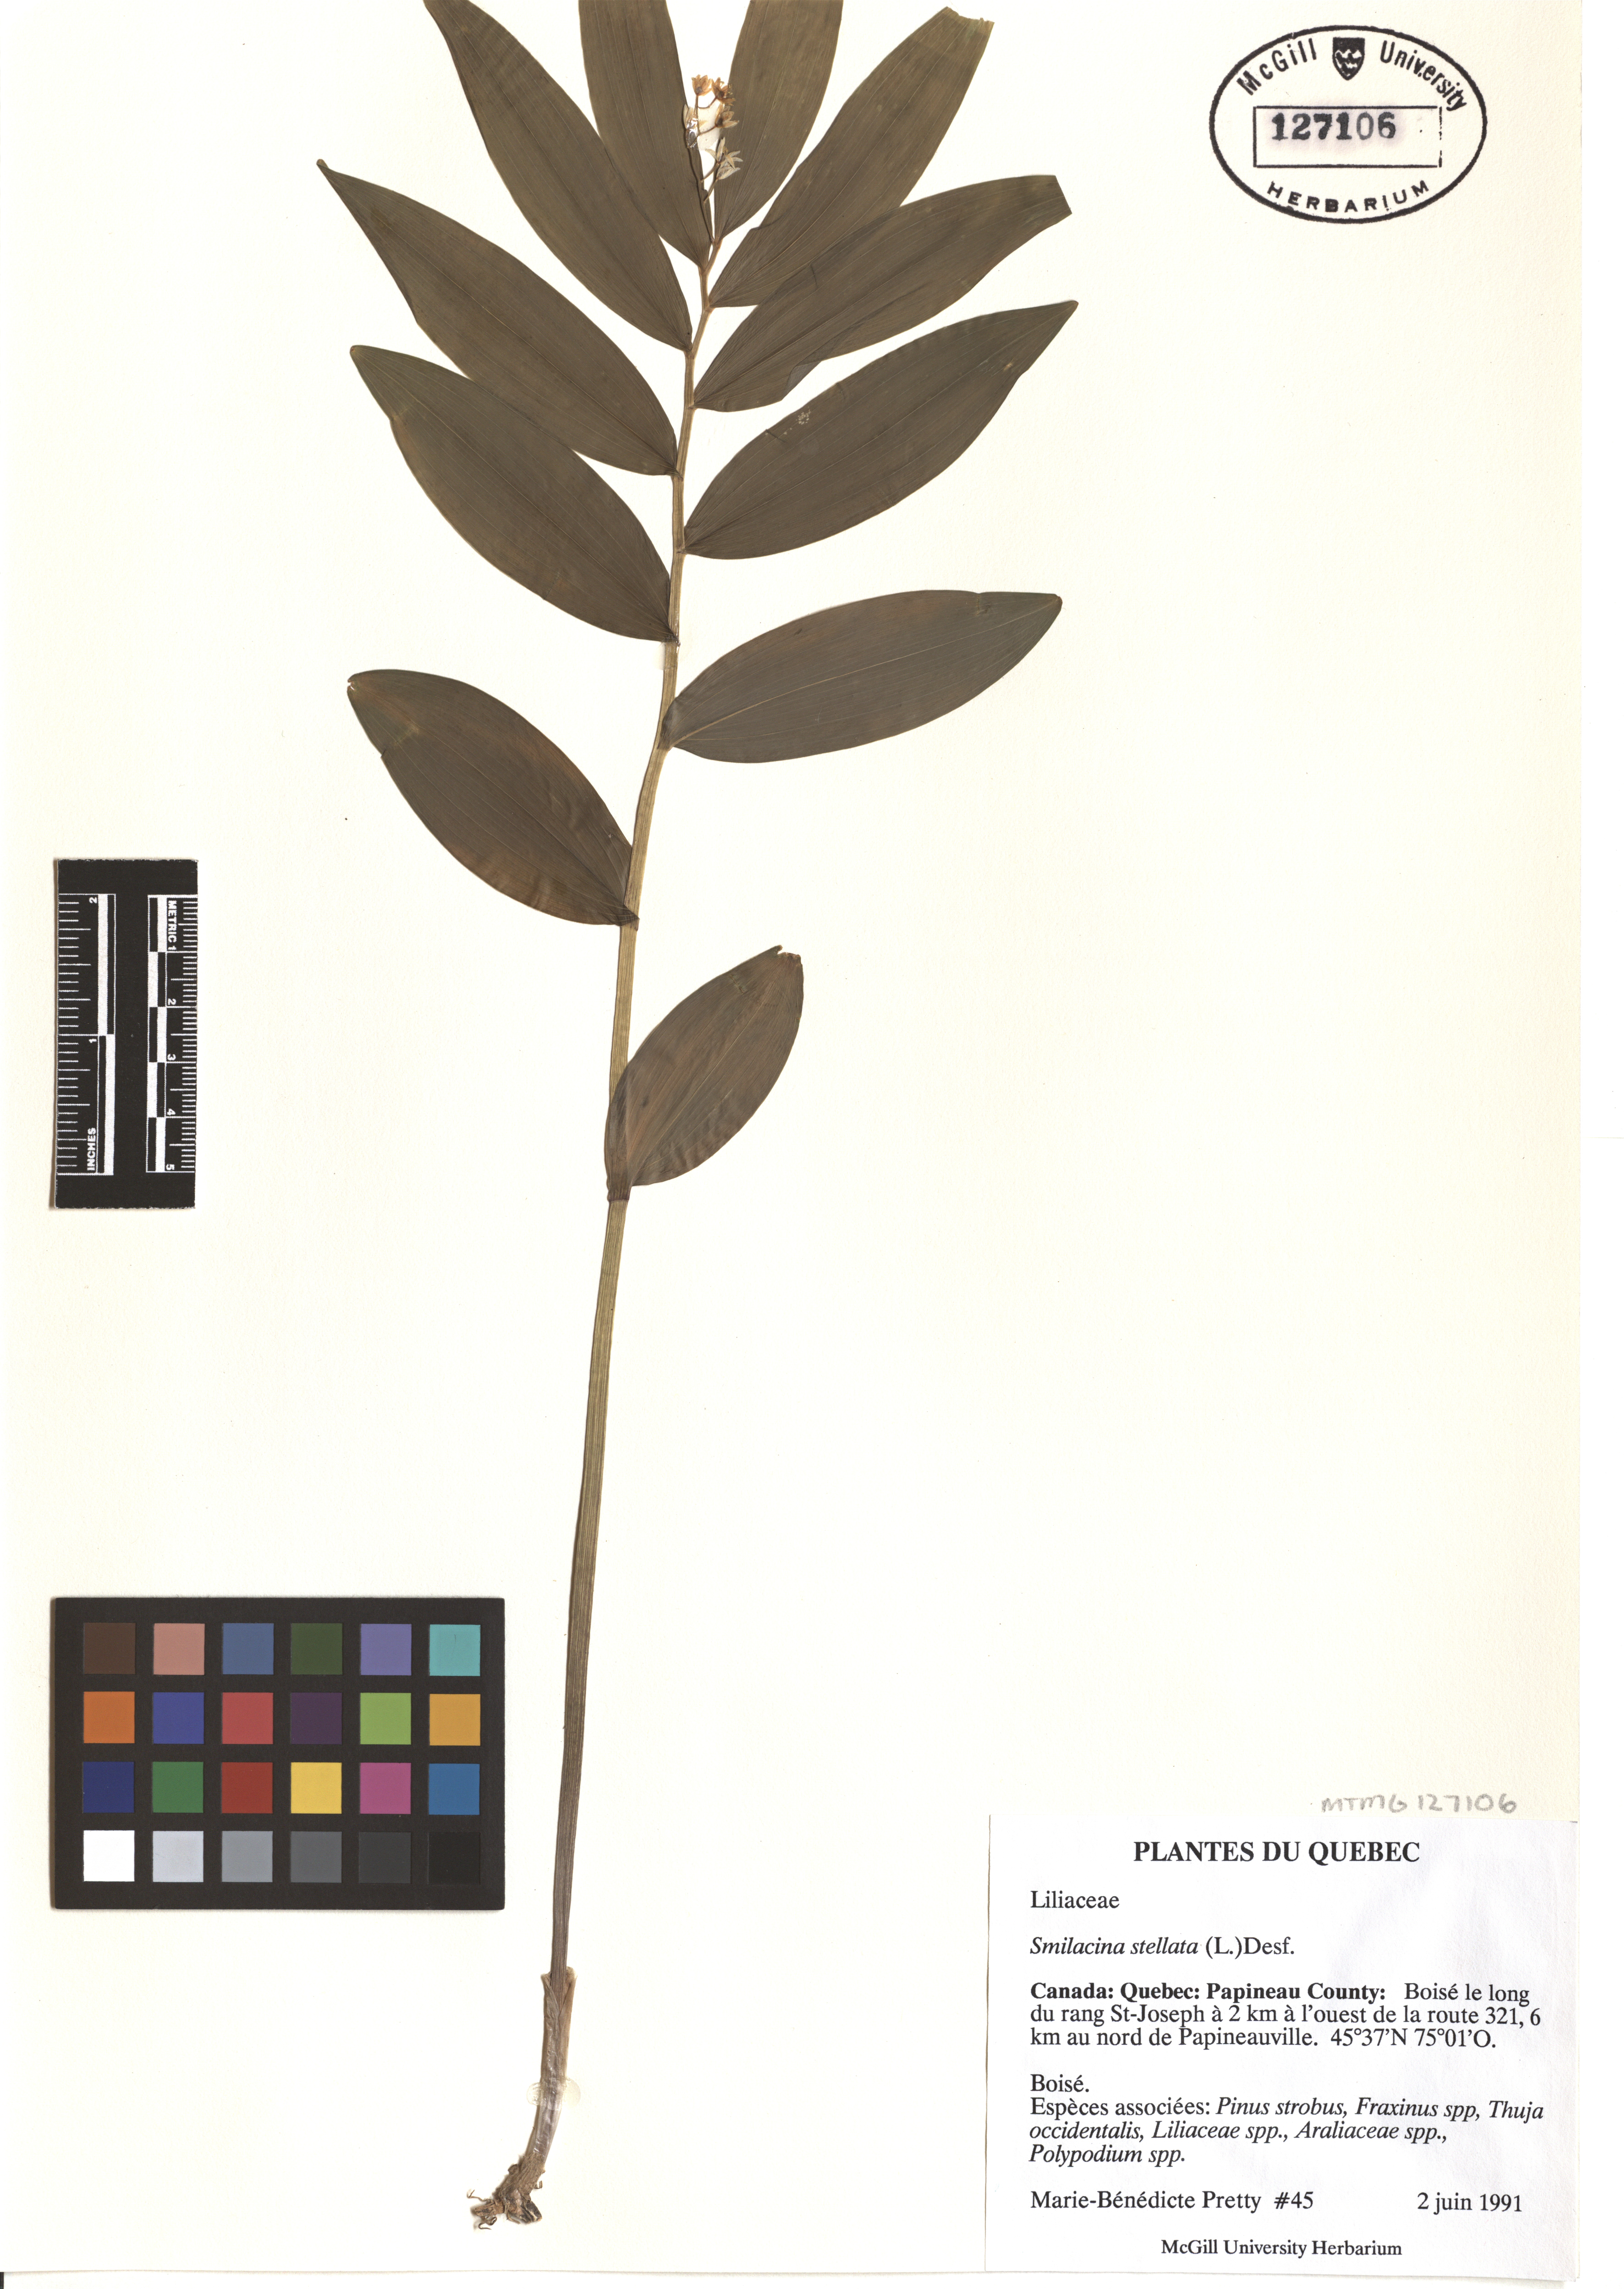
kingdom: Plantae
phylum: Tracheophyta
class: Liliopsida
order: Asparagales
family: Asparagaceae
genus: Maianthemum
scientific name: Maianthemum stellatum
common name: Little false solomon's seal
